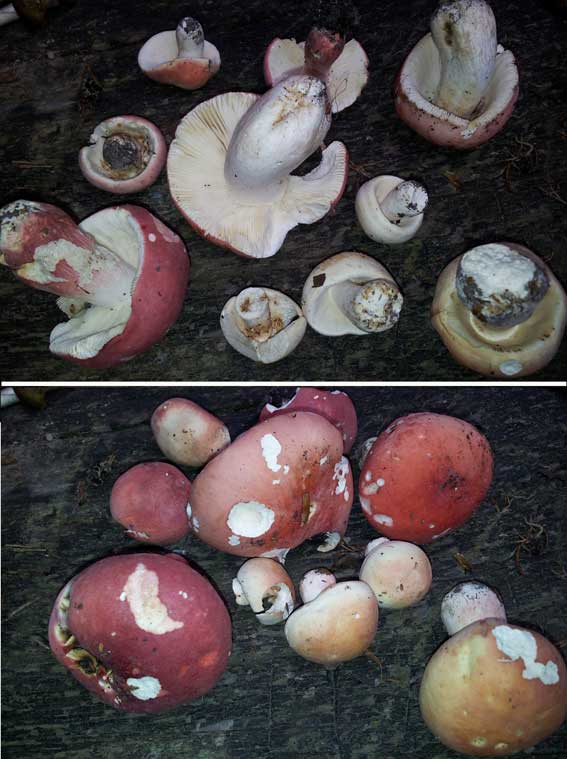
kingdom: Fungi
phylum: Basidiomycota
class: Agaricomycetes
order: Russulales
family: Russulaceae
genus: Russula
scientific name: Russula rosea
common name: fastkødet skørhat
